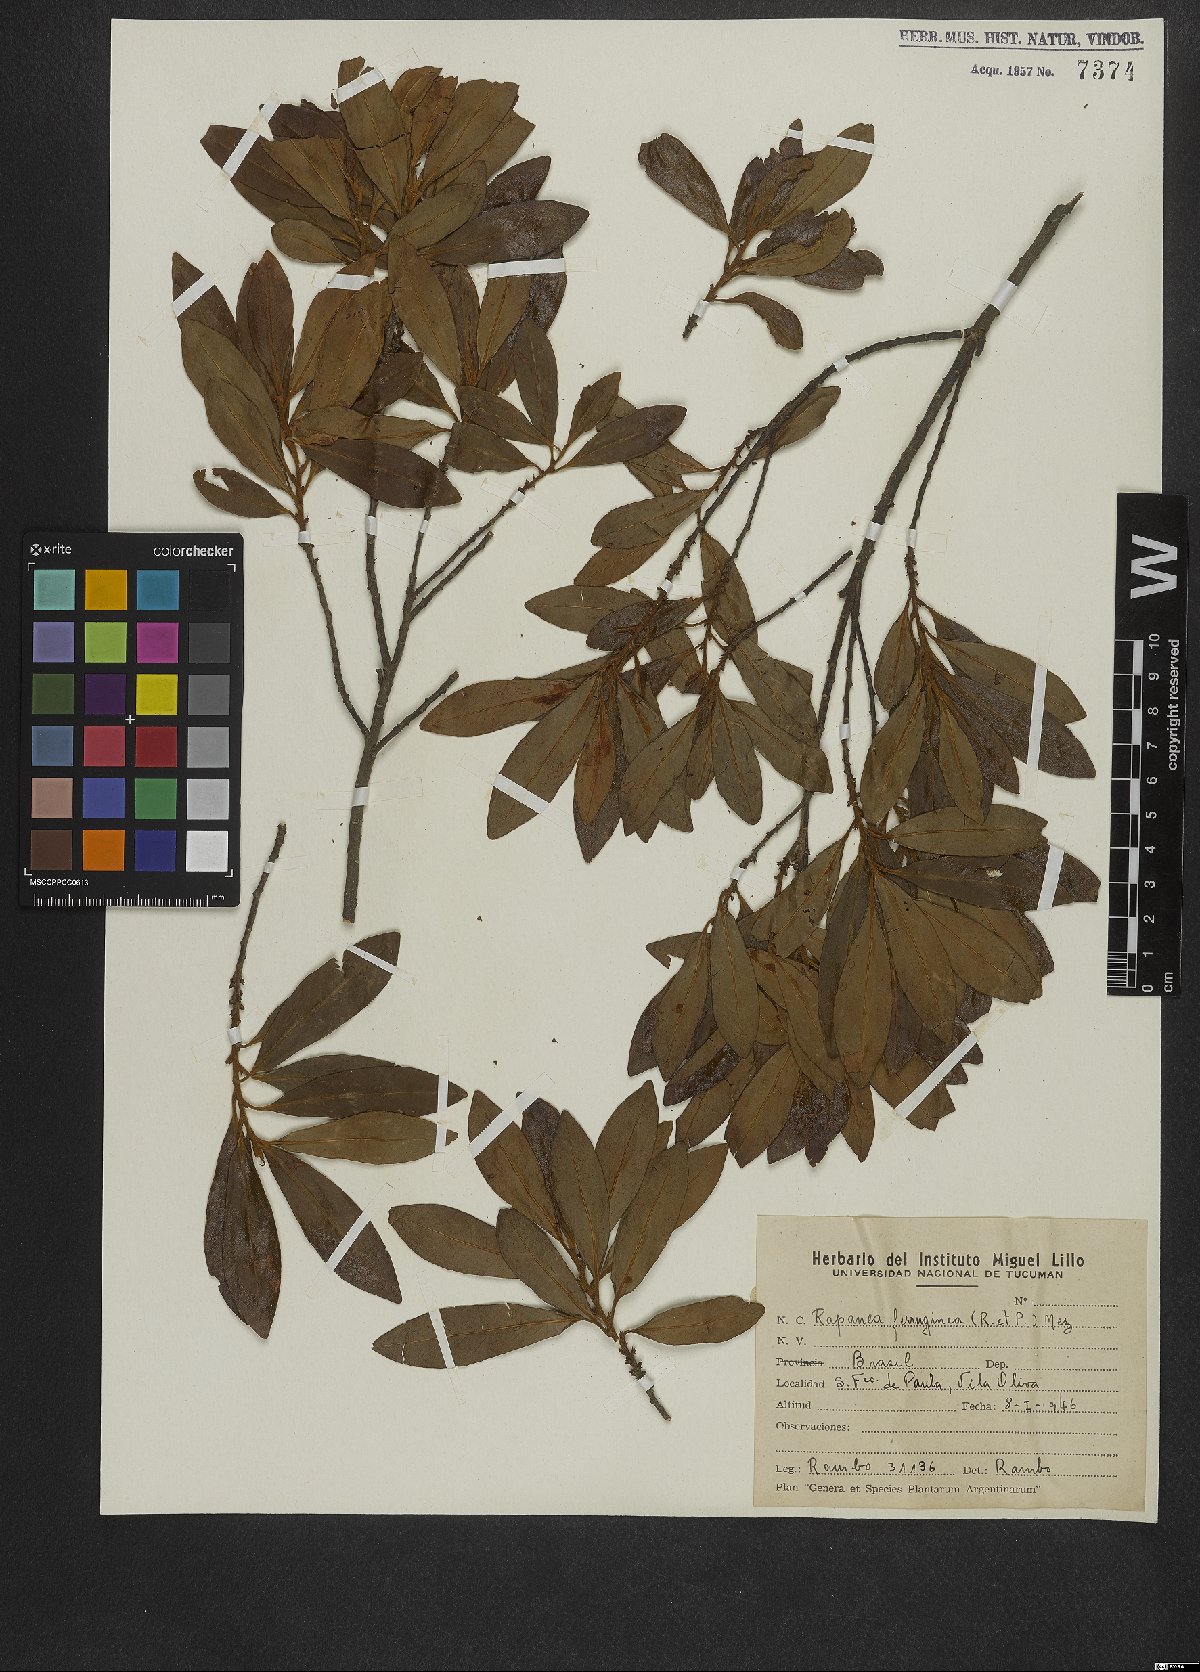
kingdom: Plantae
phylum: Tracheophyta
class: Magnoliopsida
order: Ericales
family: Primulaceae
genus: Myrsine
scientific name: Myrsine coriacea
